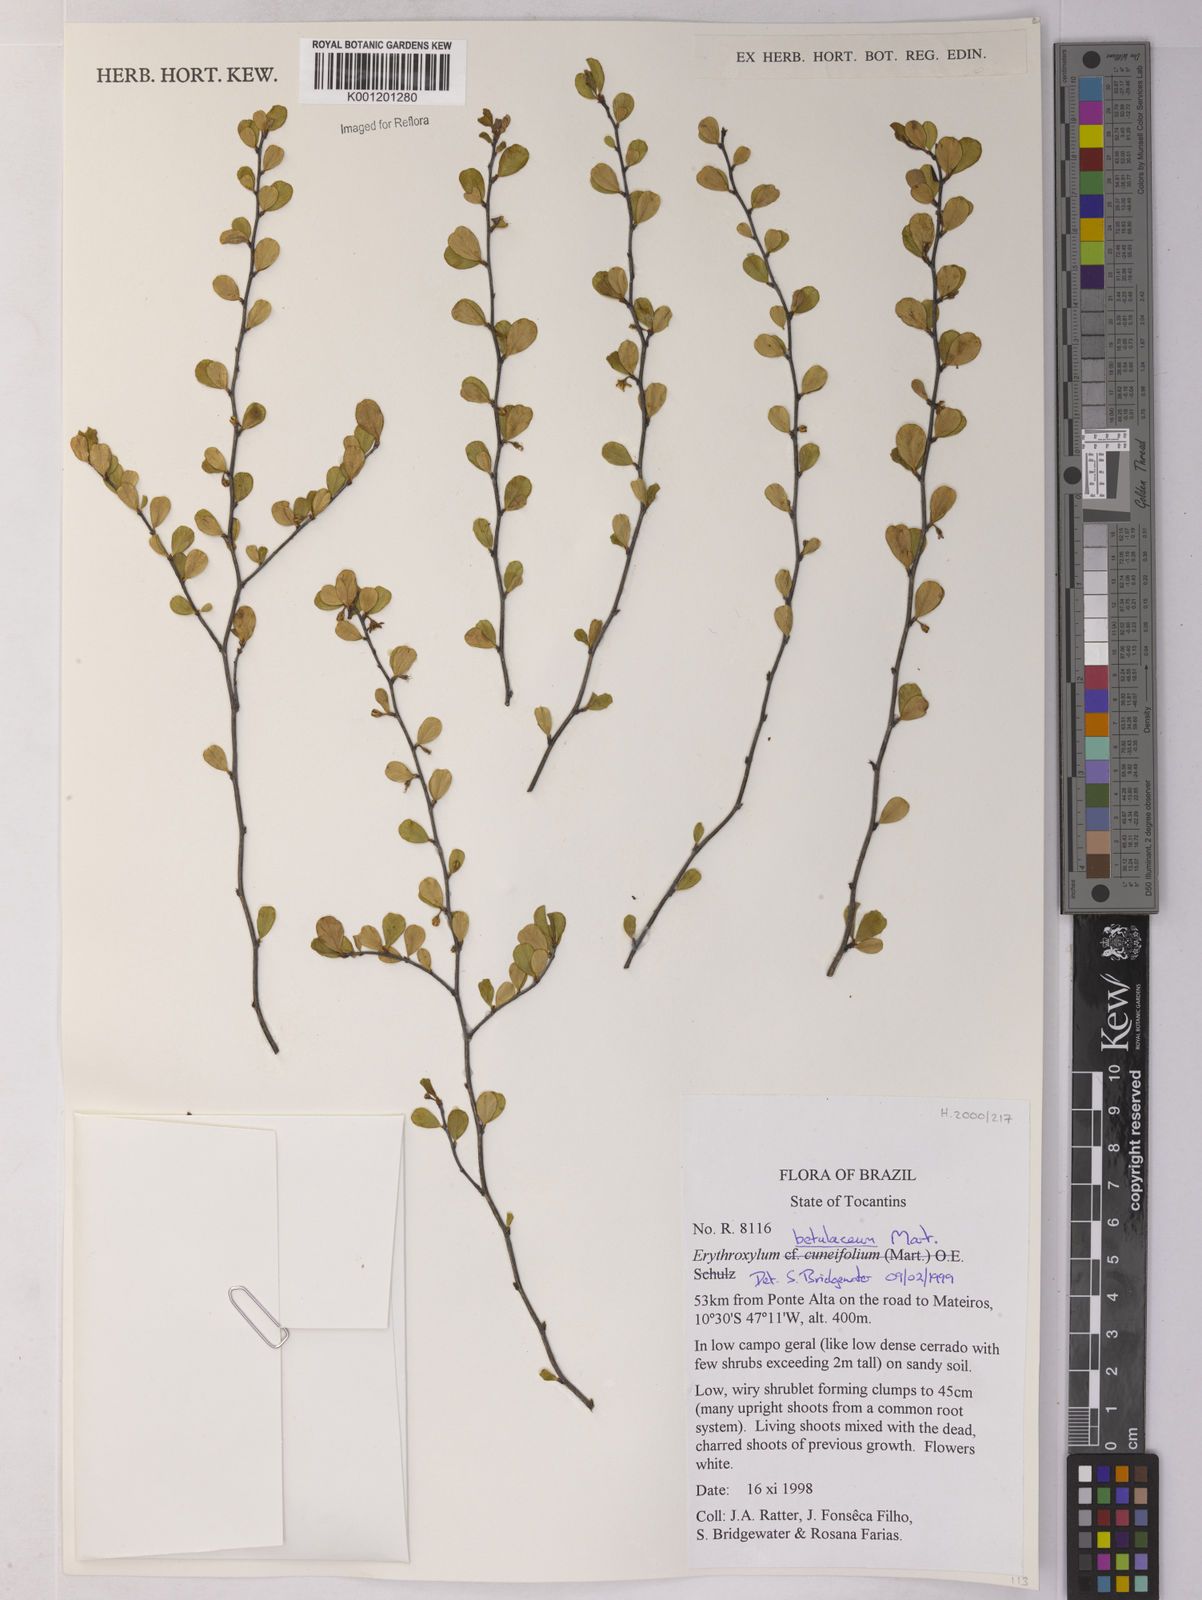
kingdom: Plantae
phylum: Tracheophyta
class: Magnoliopsida
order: Malpighiales
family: Erythroxylaceae
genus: Erythroxylum
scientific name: Erythroxylum betulaceum
